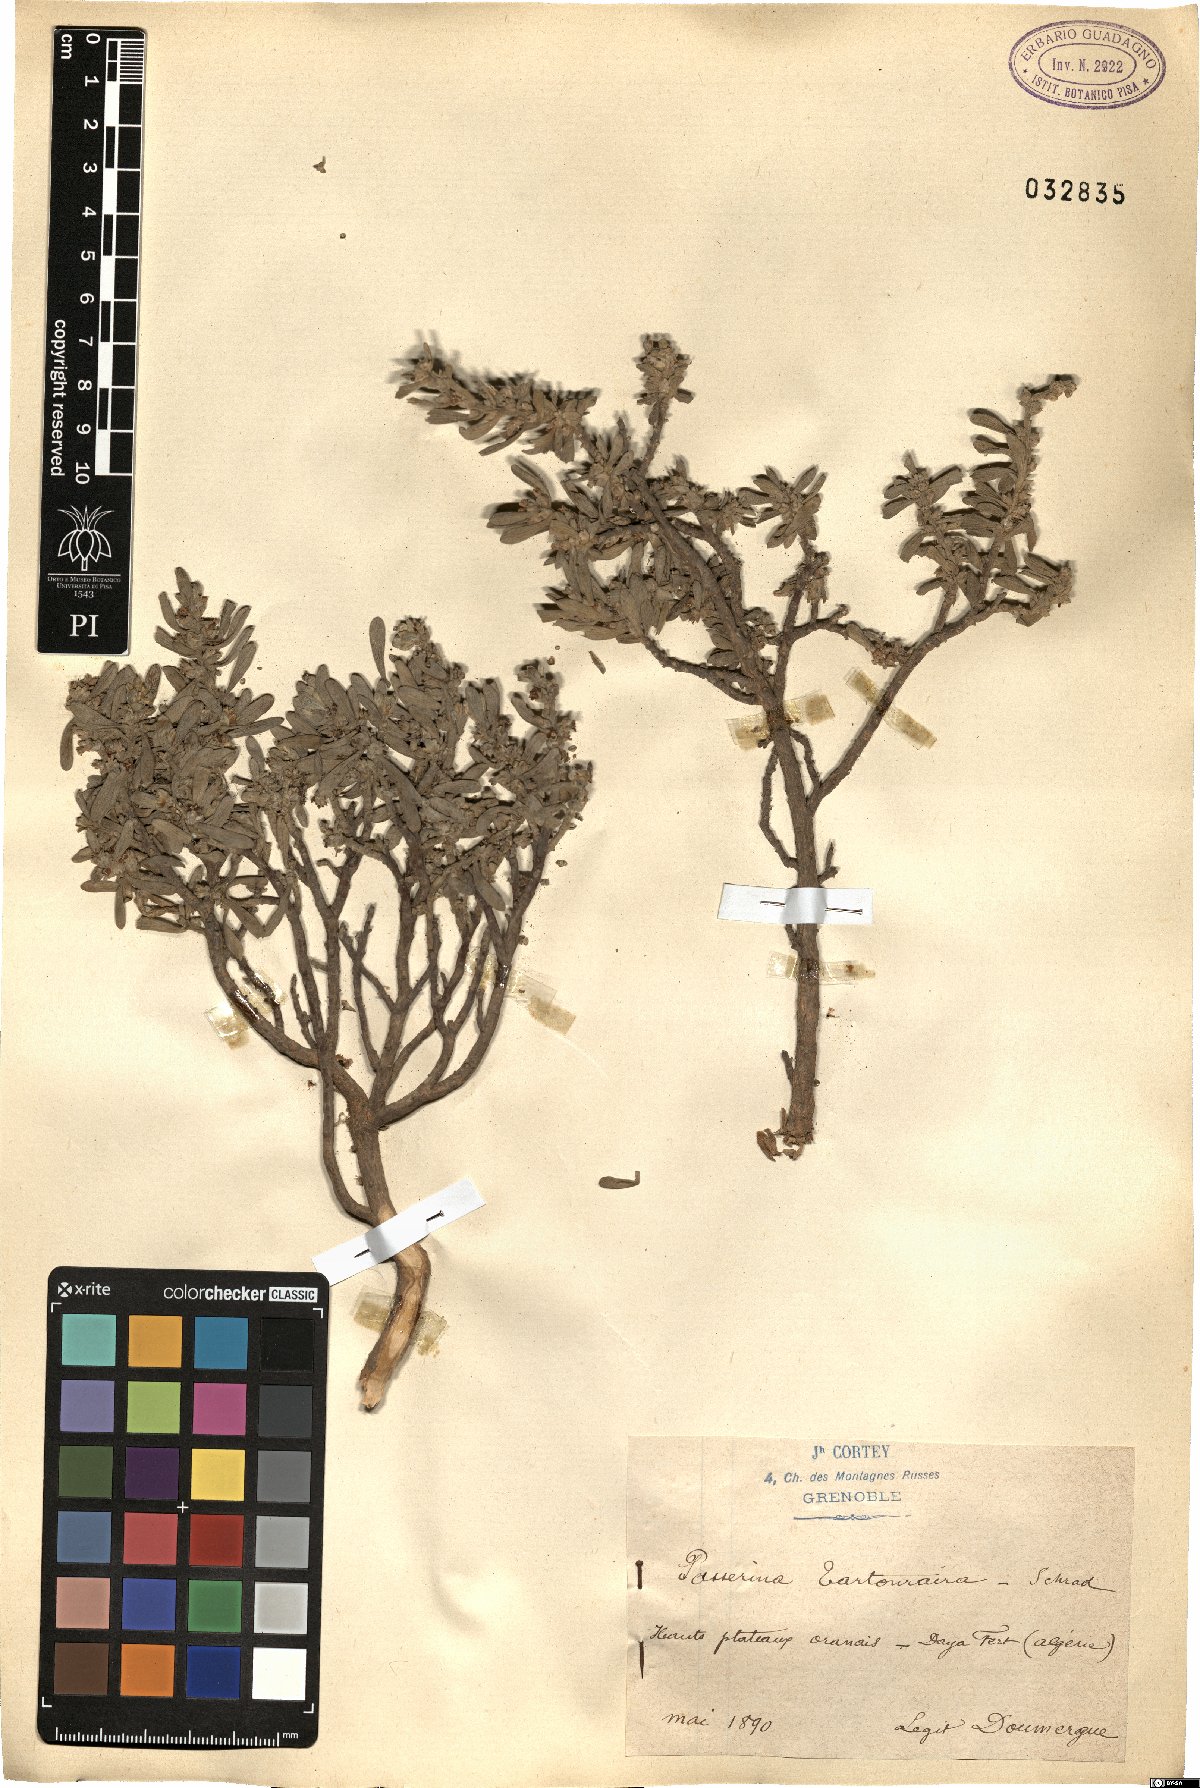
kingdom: Plantae
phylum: Tracheophyta
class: Magnoliopsida
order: Malvales
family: Thymelaeaceae
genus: Thymelaea
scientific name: Thymelaea tartonraira
